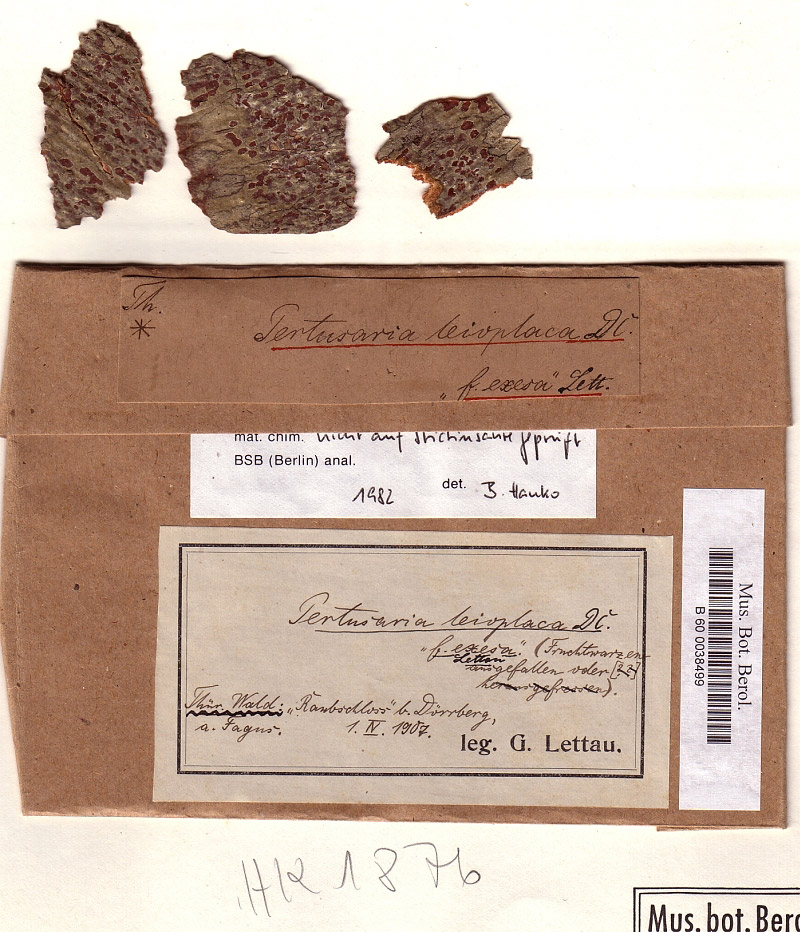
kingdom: Fungi
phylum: Ascomycota
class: Lecanoromycetes
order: Pertusariales
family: Pertusariaceae
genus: Pertusaria
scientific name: Pertusaria leioplaca
